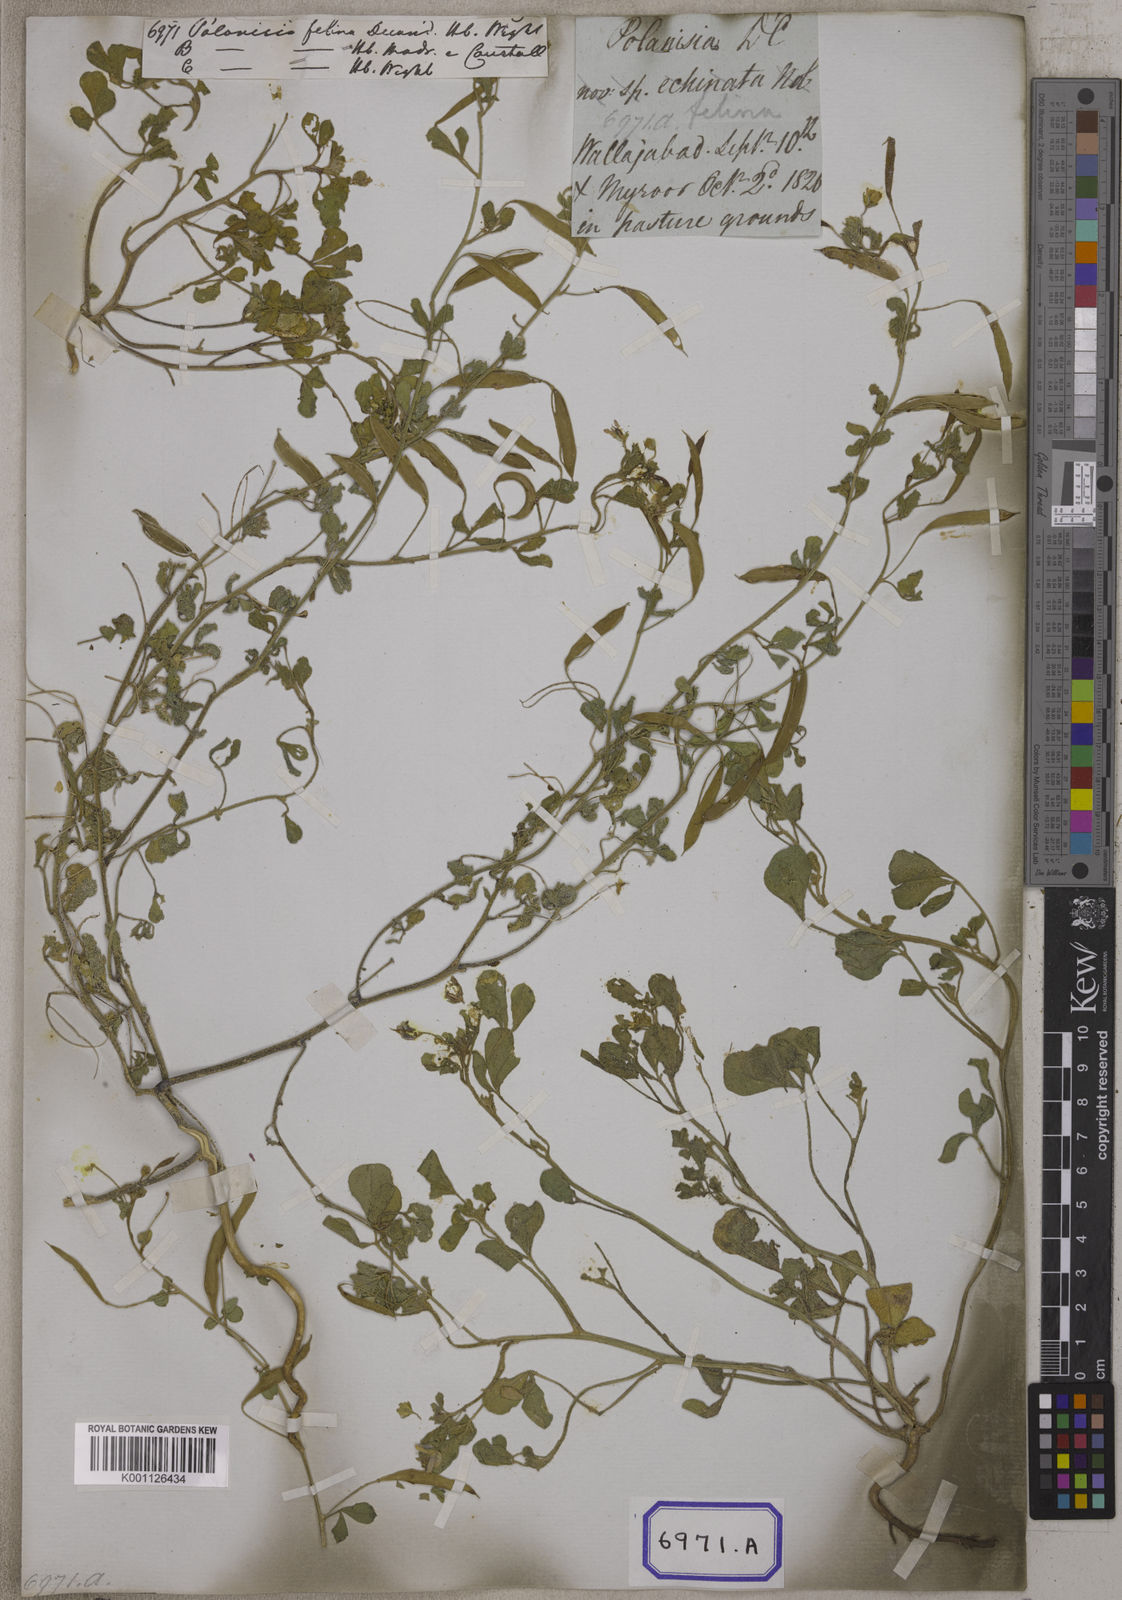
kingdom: Plantae
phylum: Tracheophyta
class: Magnoliopsida
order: Brassicales
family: Cleomaceae
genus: Corynandra
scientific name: Corynandra felina
